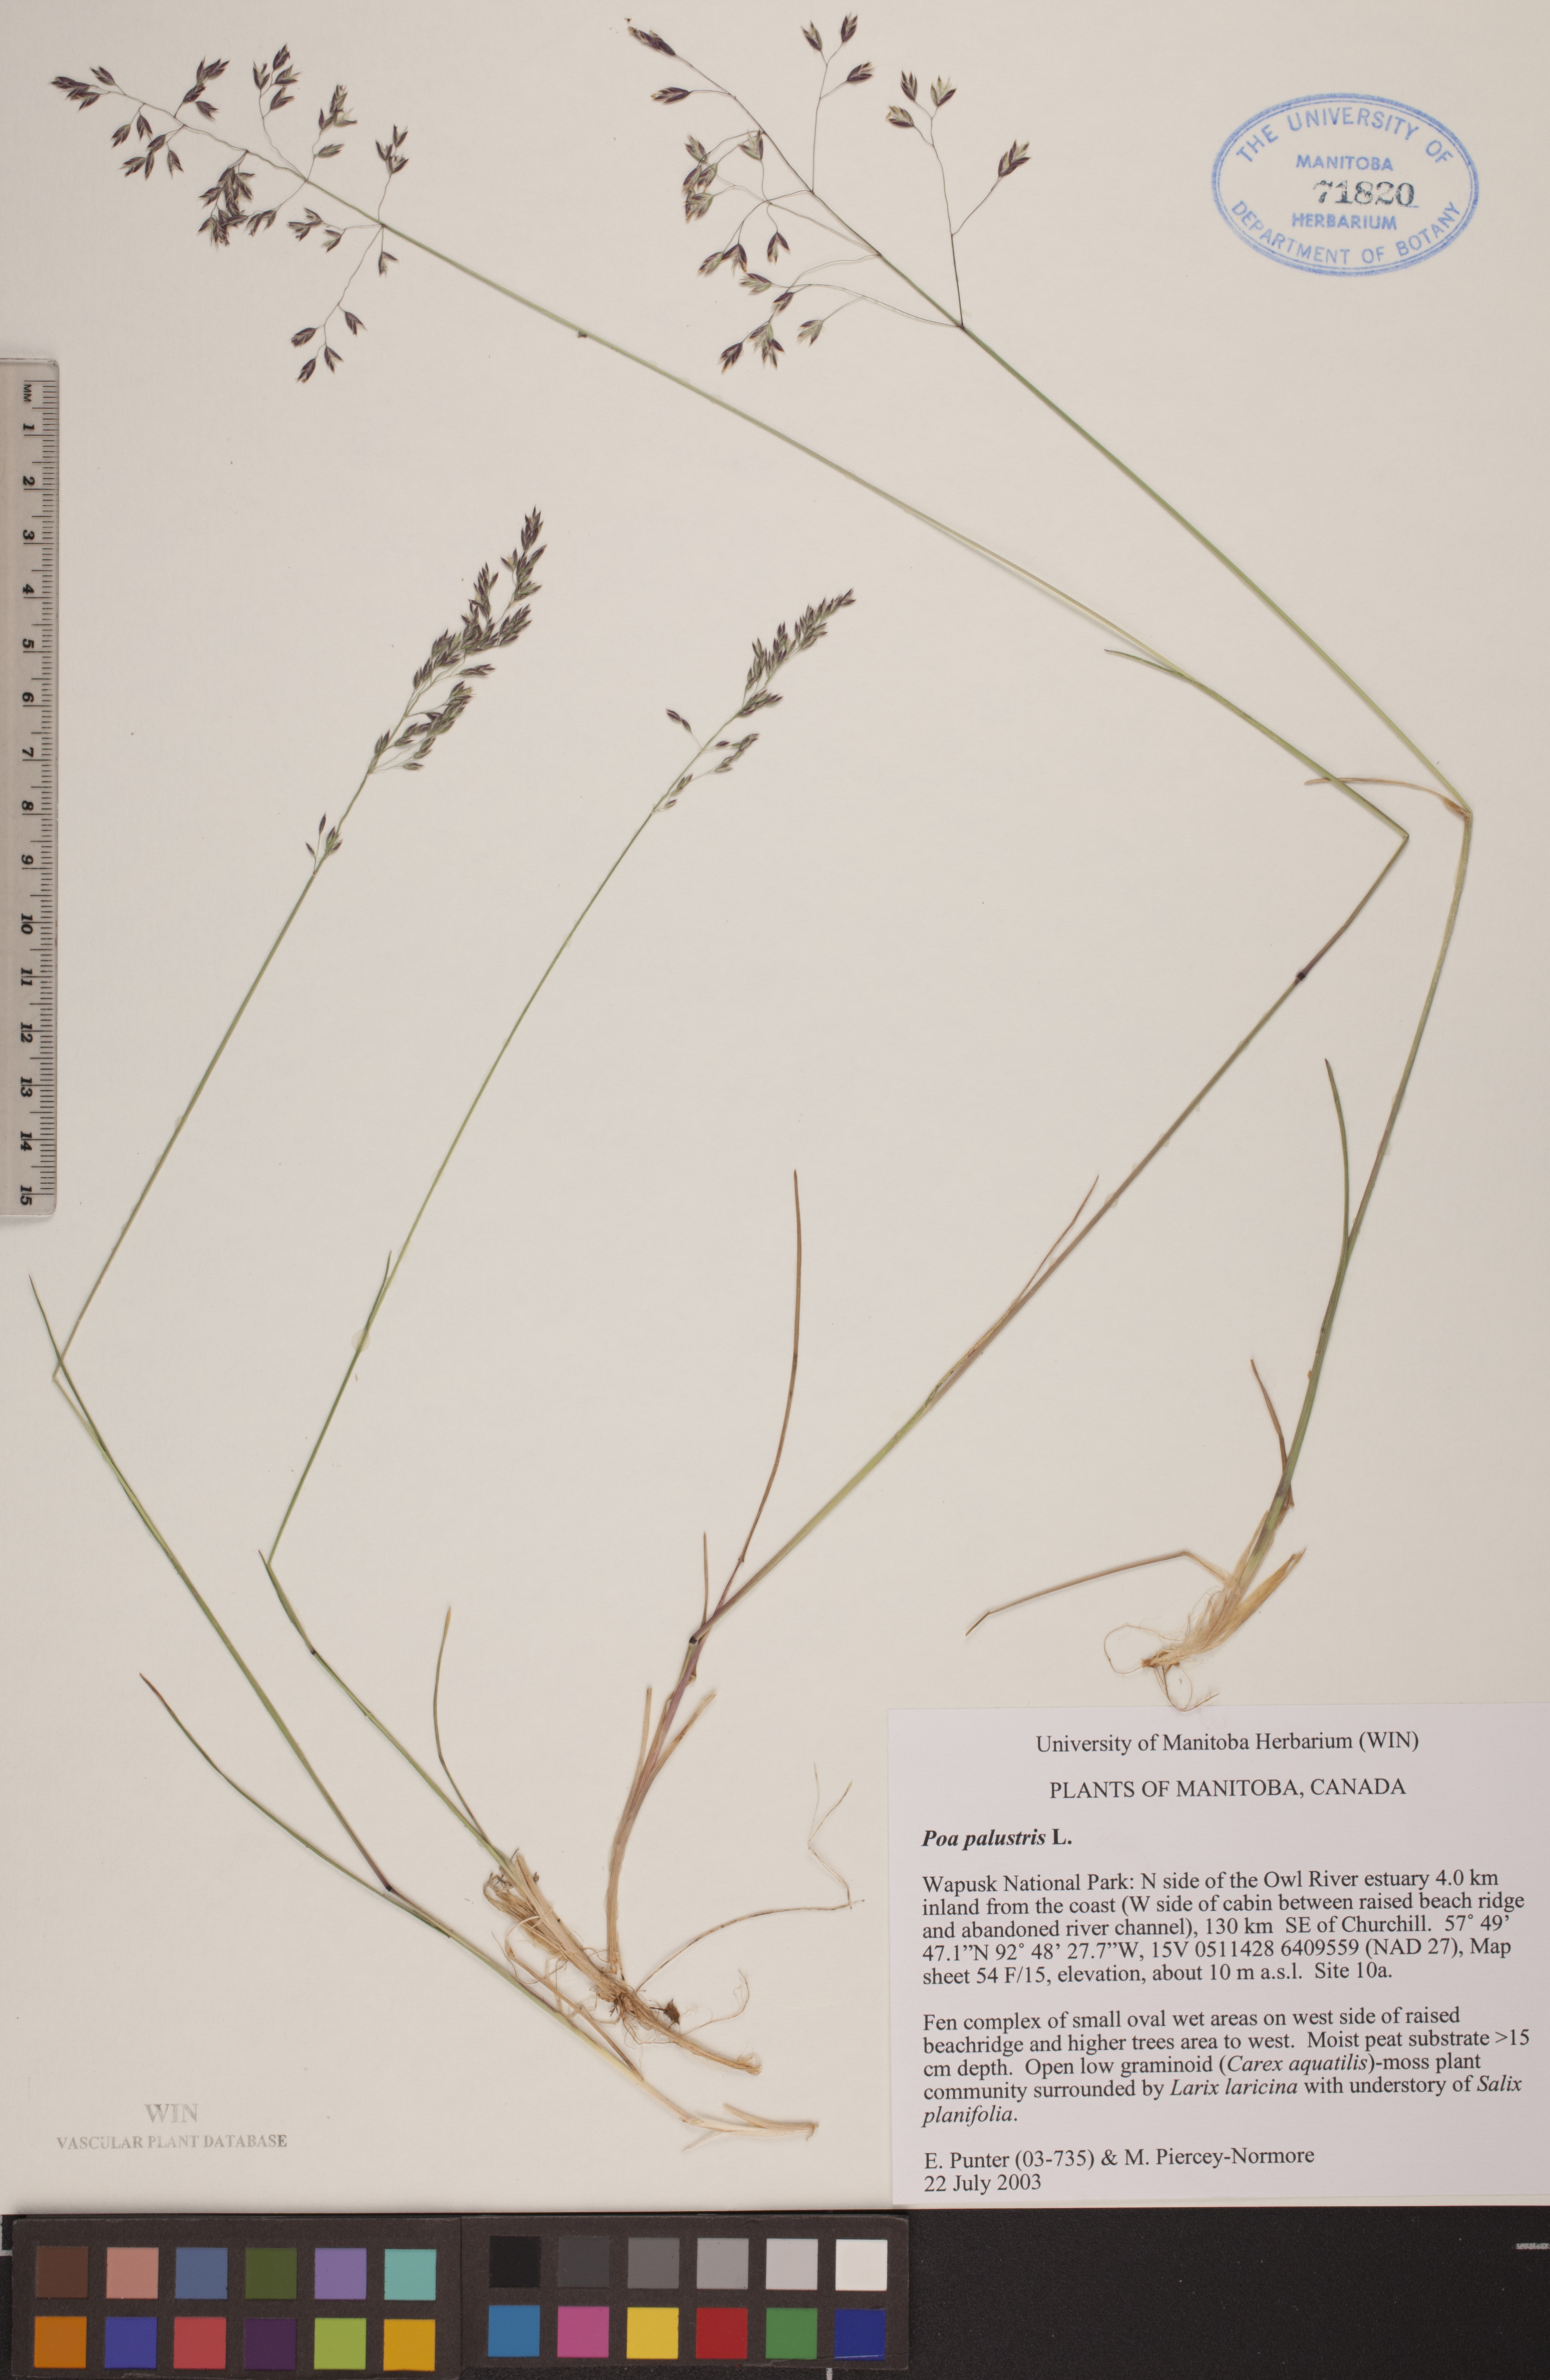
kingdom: Plantae
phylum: Tracheophyta
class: Liliopsida
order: Poales
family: Poaceae
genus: Poa
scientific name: Poa palustris
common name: Swamp meadow-grass
